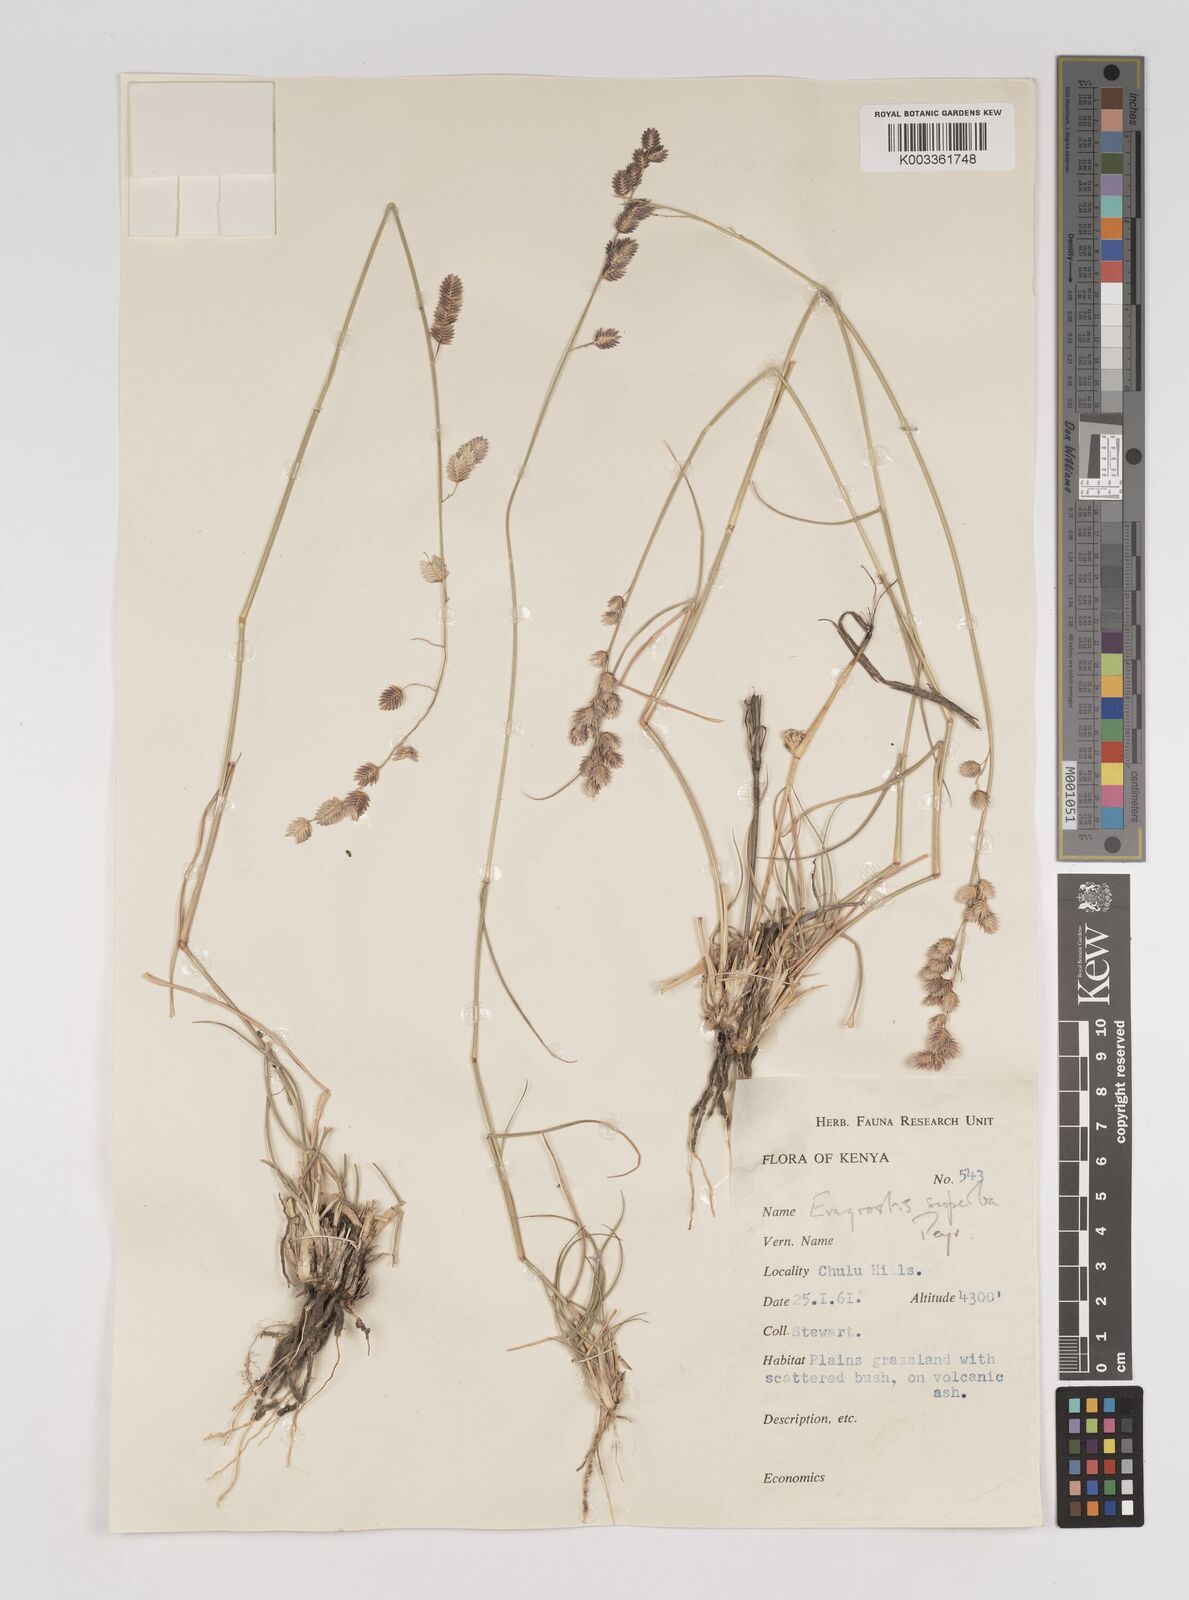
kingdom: Plantae
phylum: Tracheophyta
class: Liliopsida
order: Poales
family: Poaceae
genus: Eragrostis
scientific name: Eragrostis superba
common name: Wilman lovegrass
